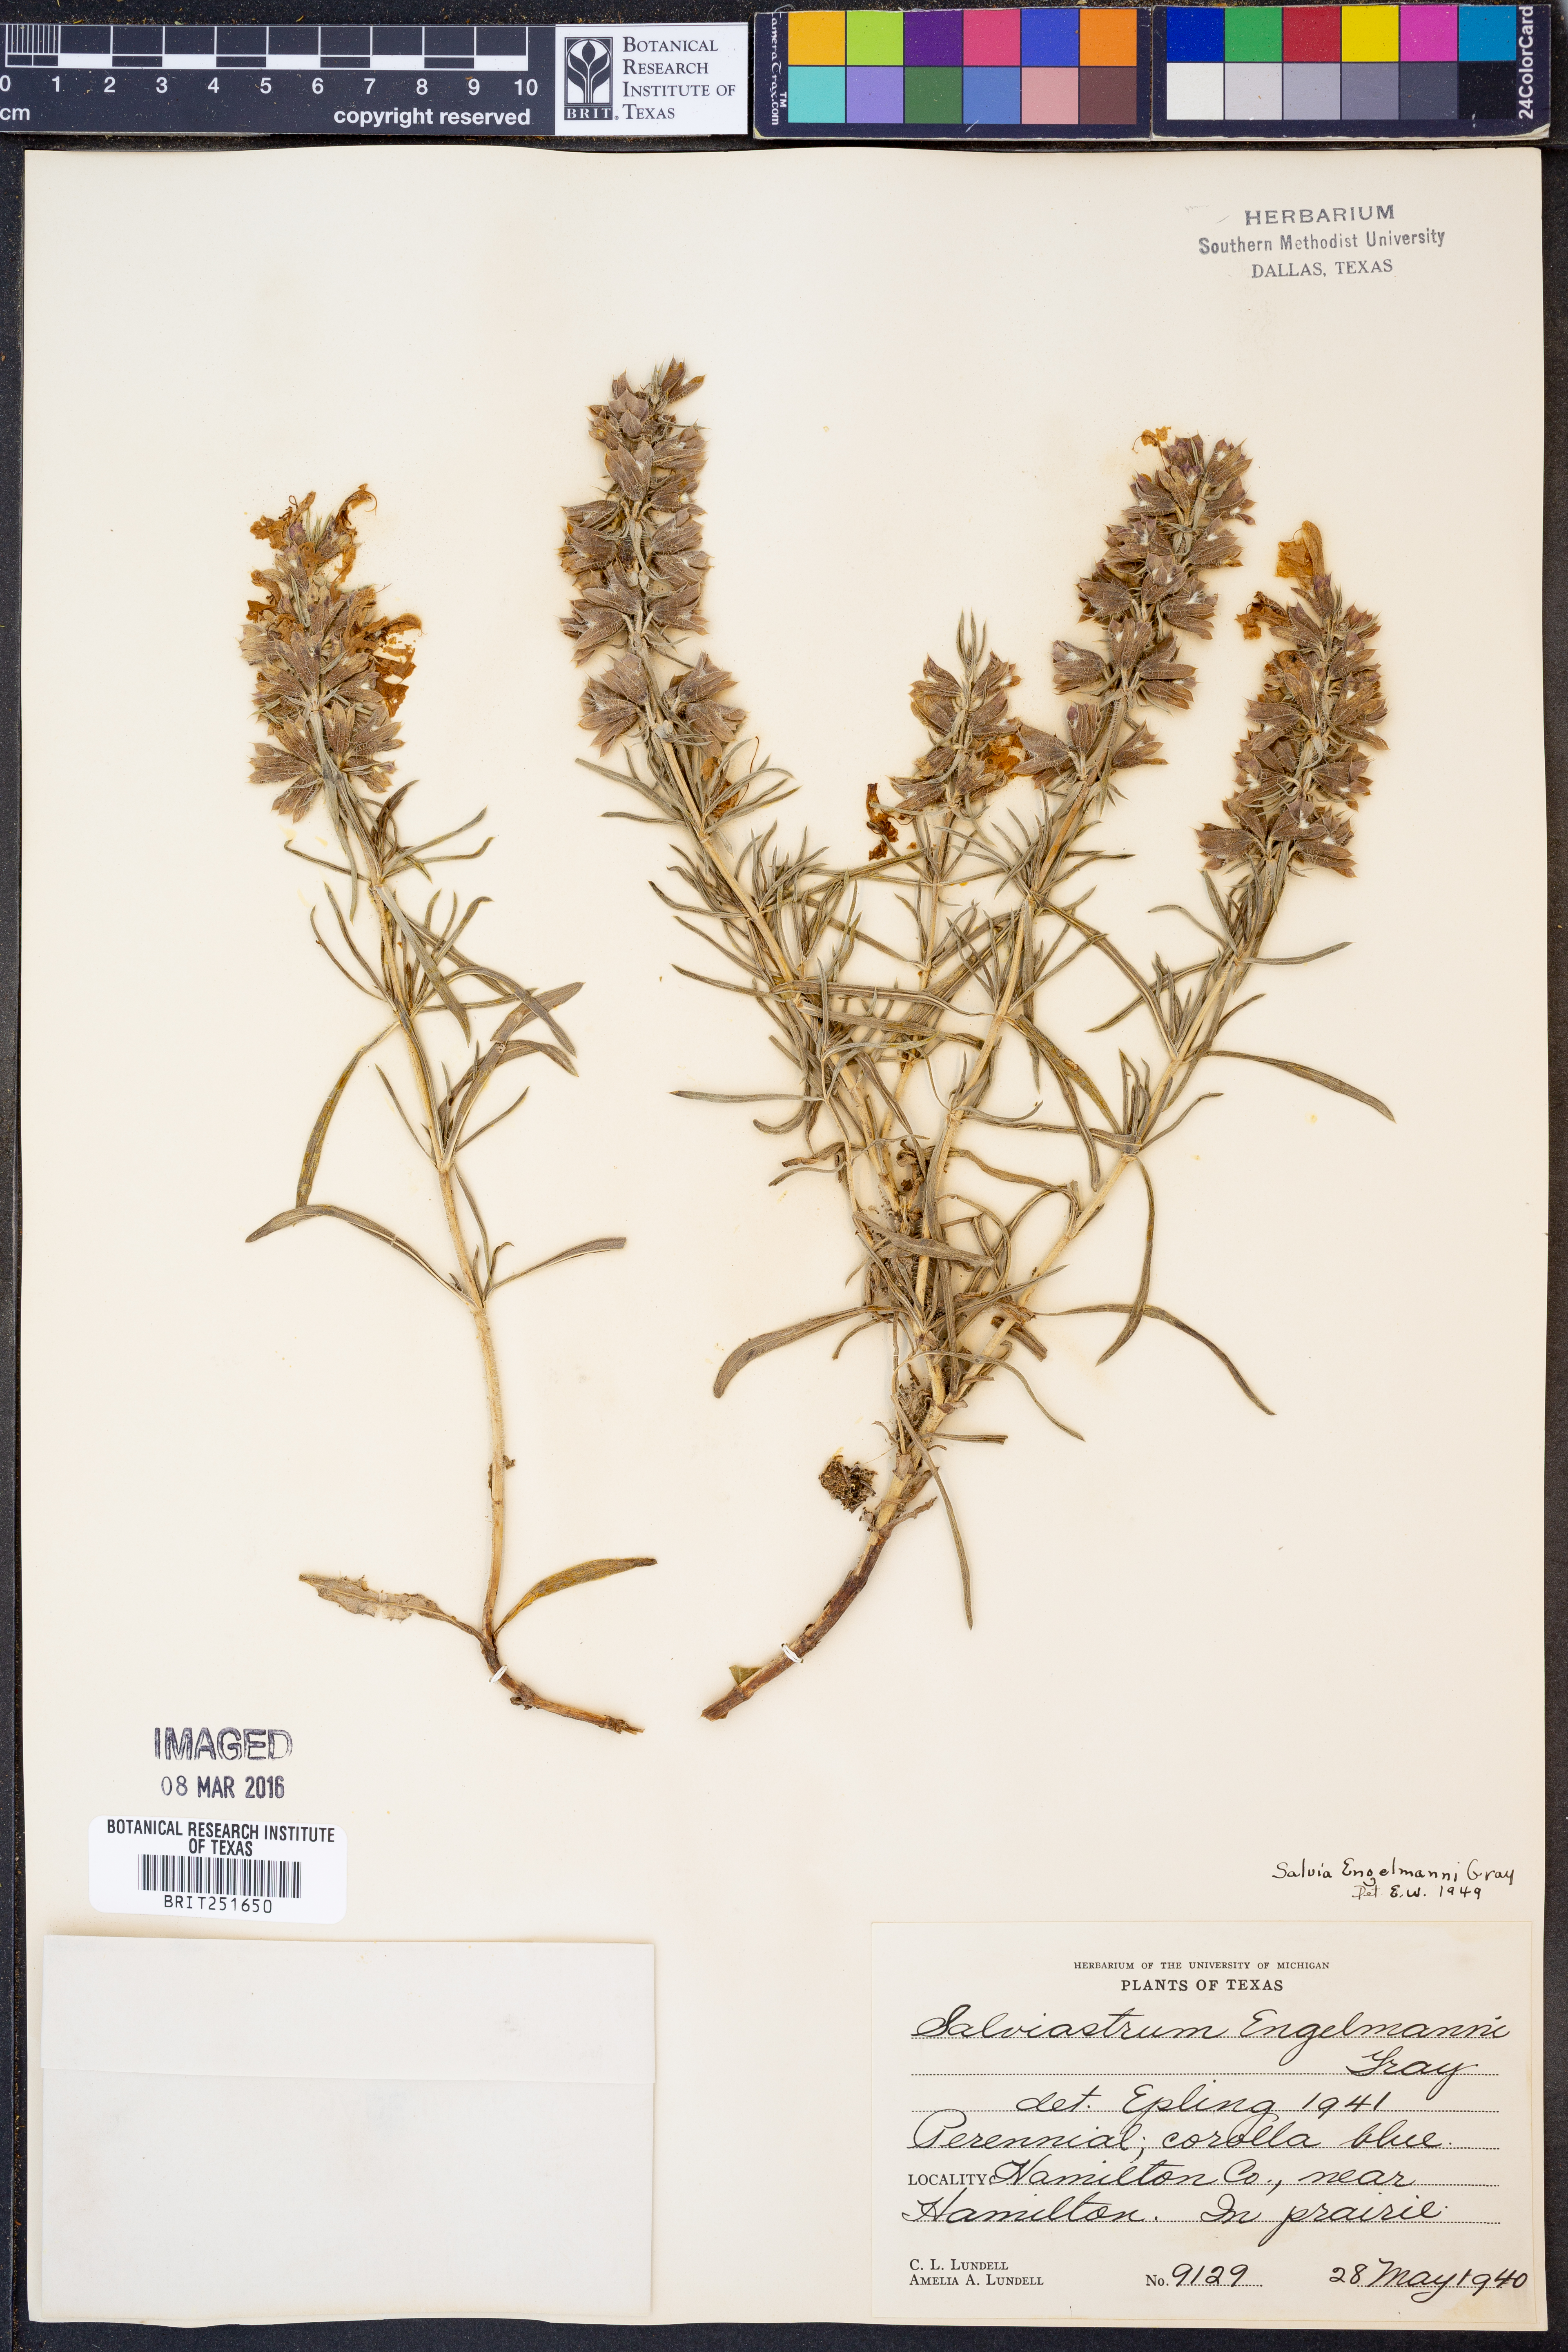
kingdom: Plantae
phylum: Tracheophyta
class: Magnoliopsida
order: Lamiales
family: Lamiaceae
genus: Salvia
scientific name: Salvia engelmannii
